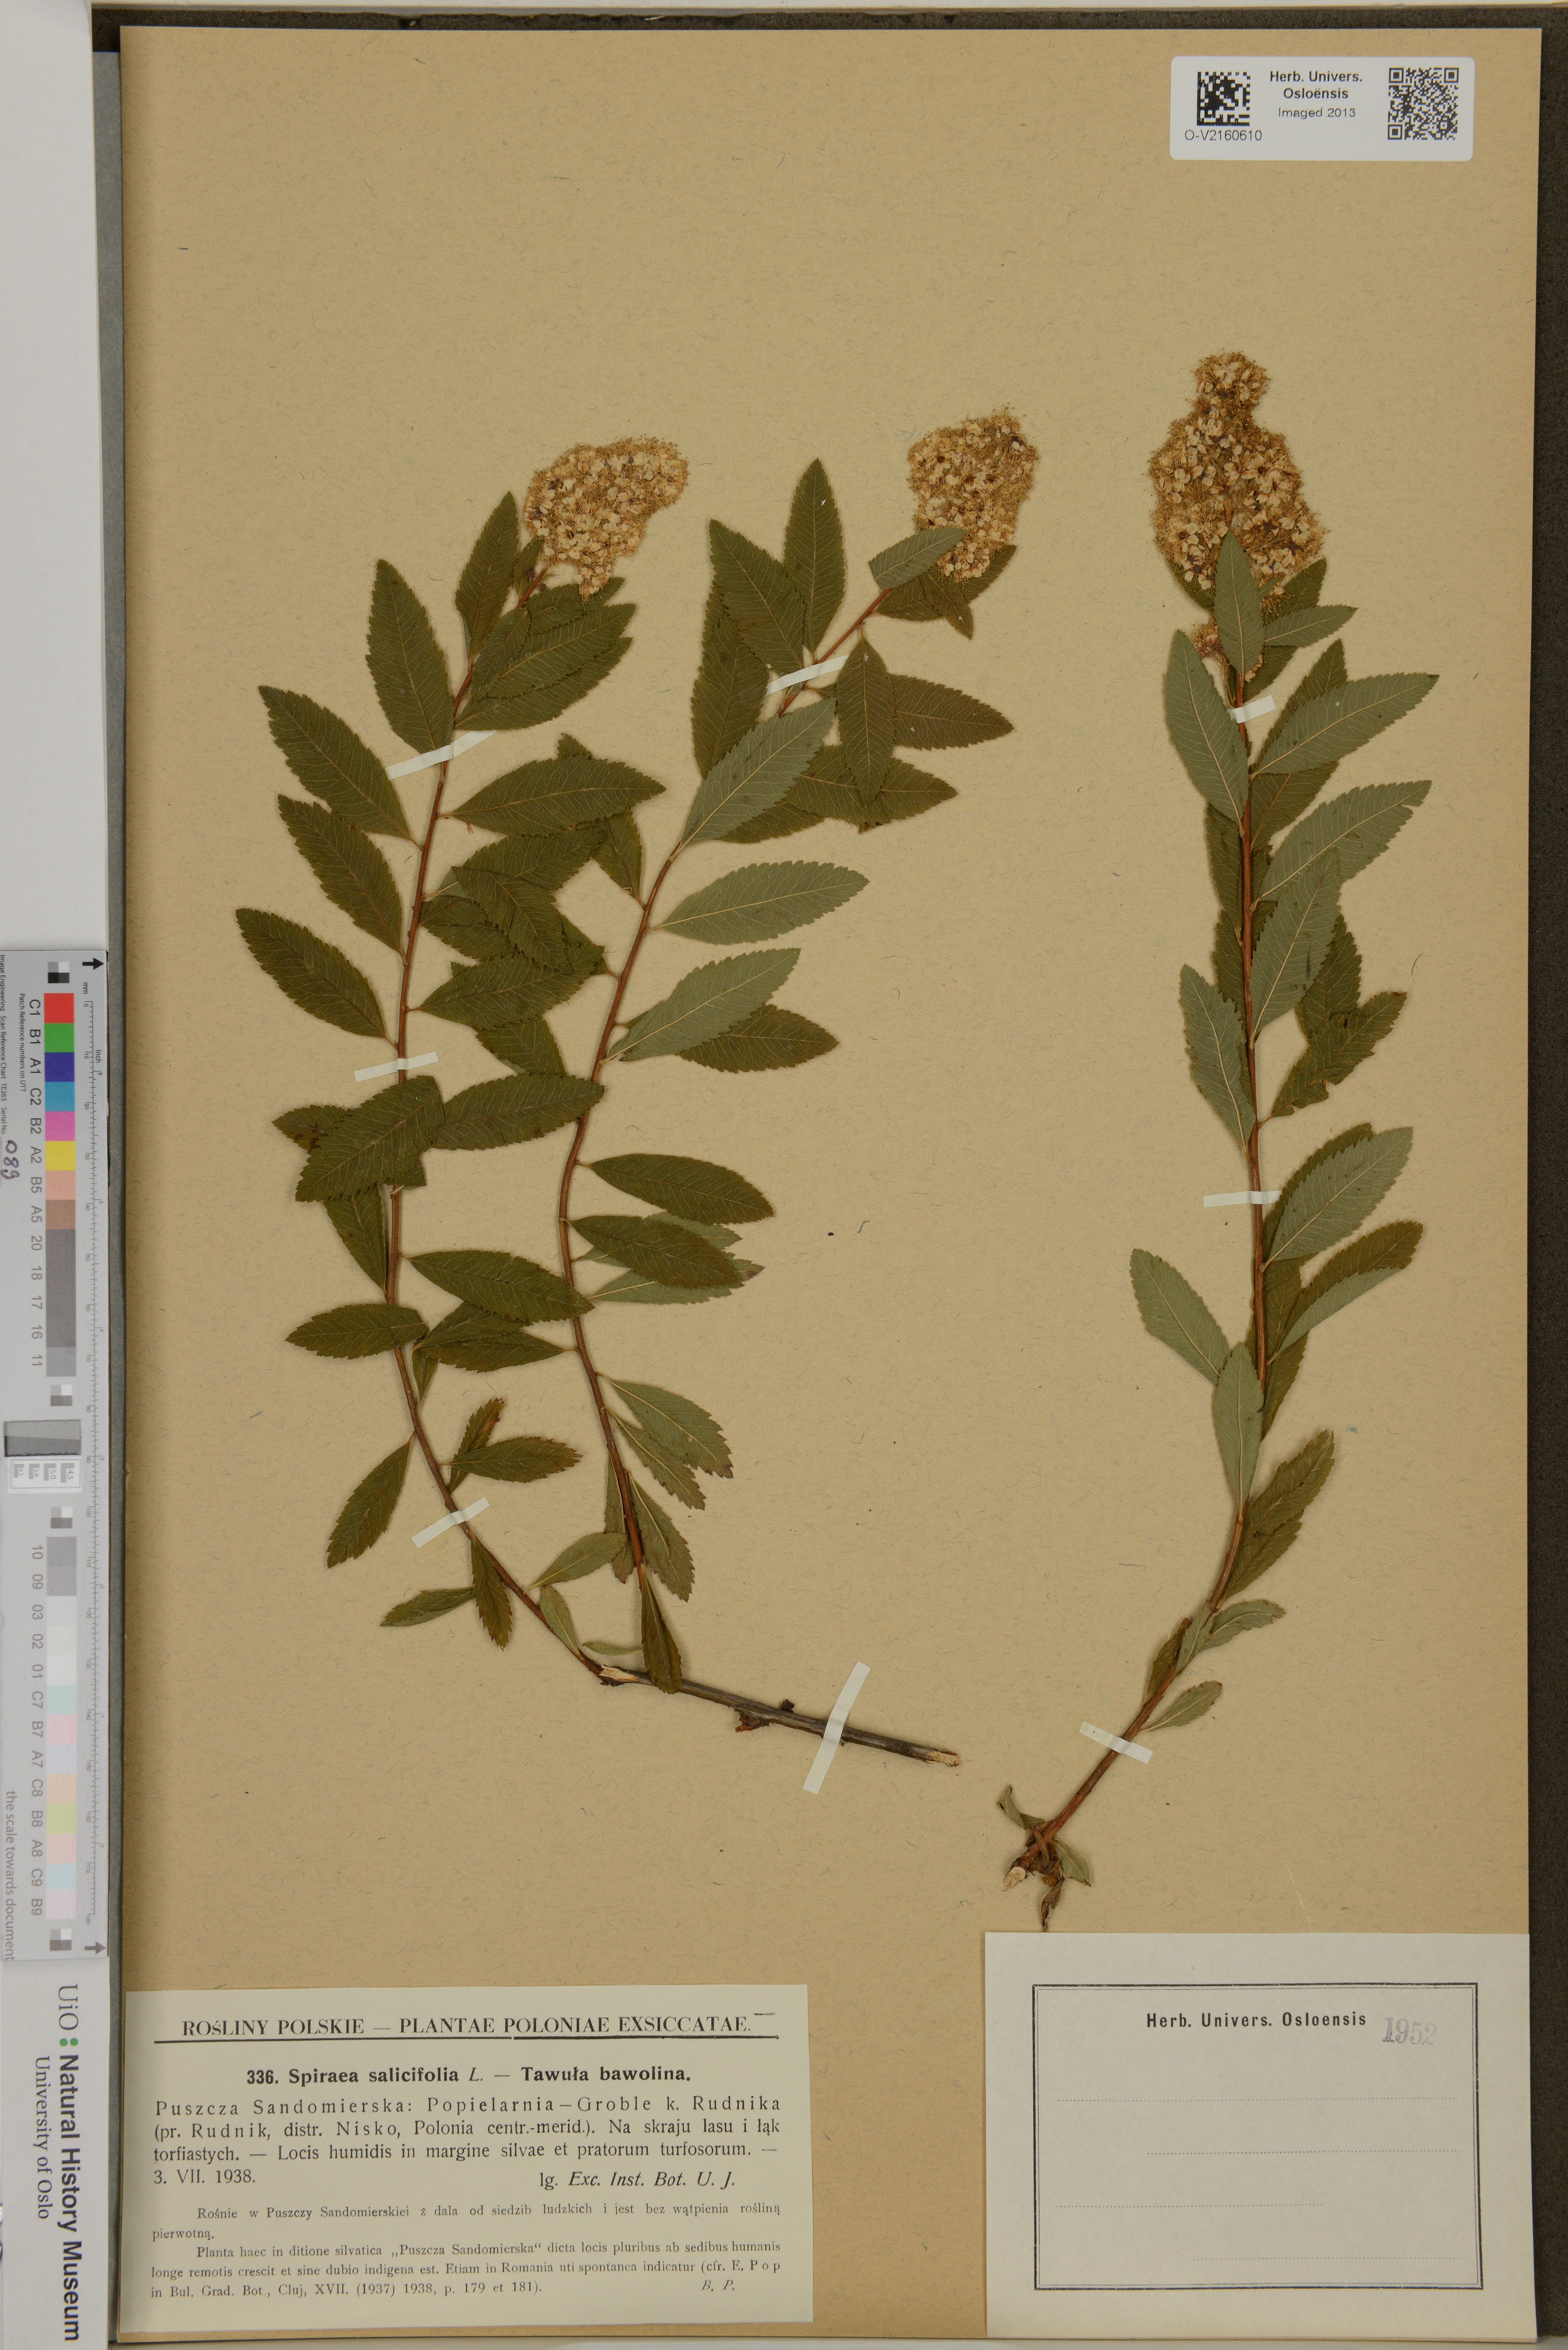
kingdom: Plantae
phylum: Tracheophyta
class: Magnoliopsida
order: Rosales
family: Rosaceae
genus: Spiraea
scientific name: Spiraea salicifolia
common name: Bridewort
